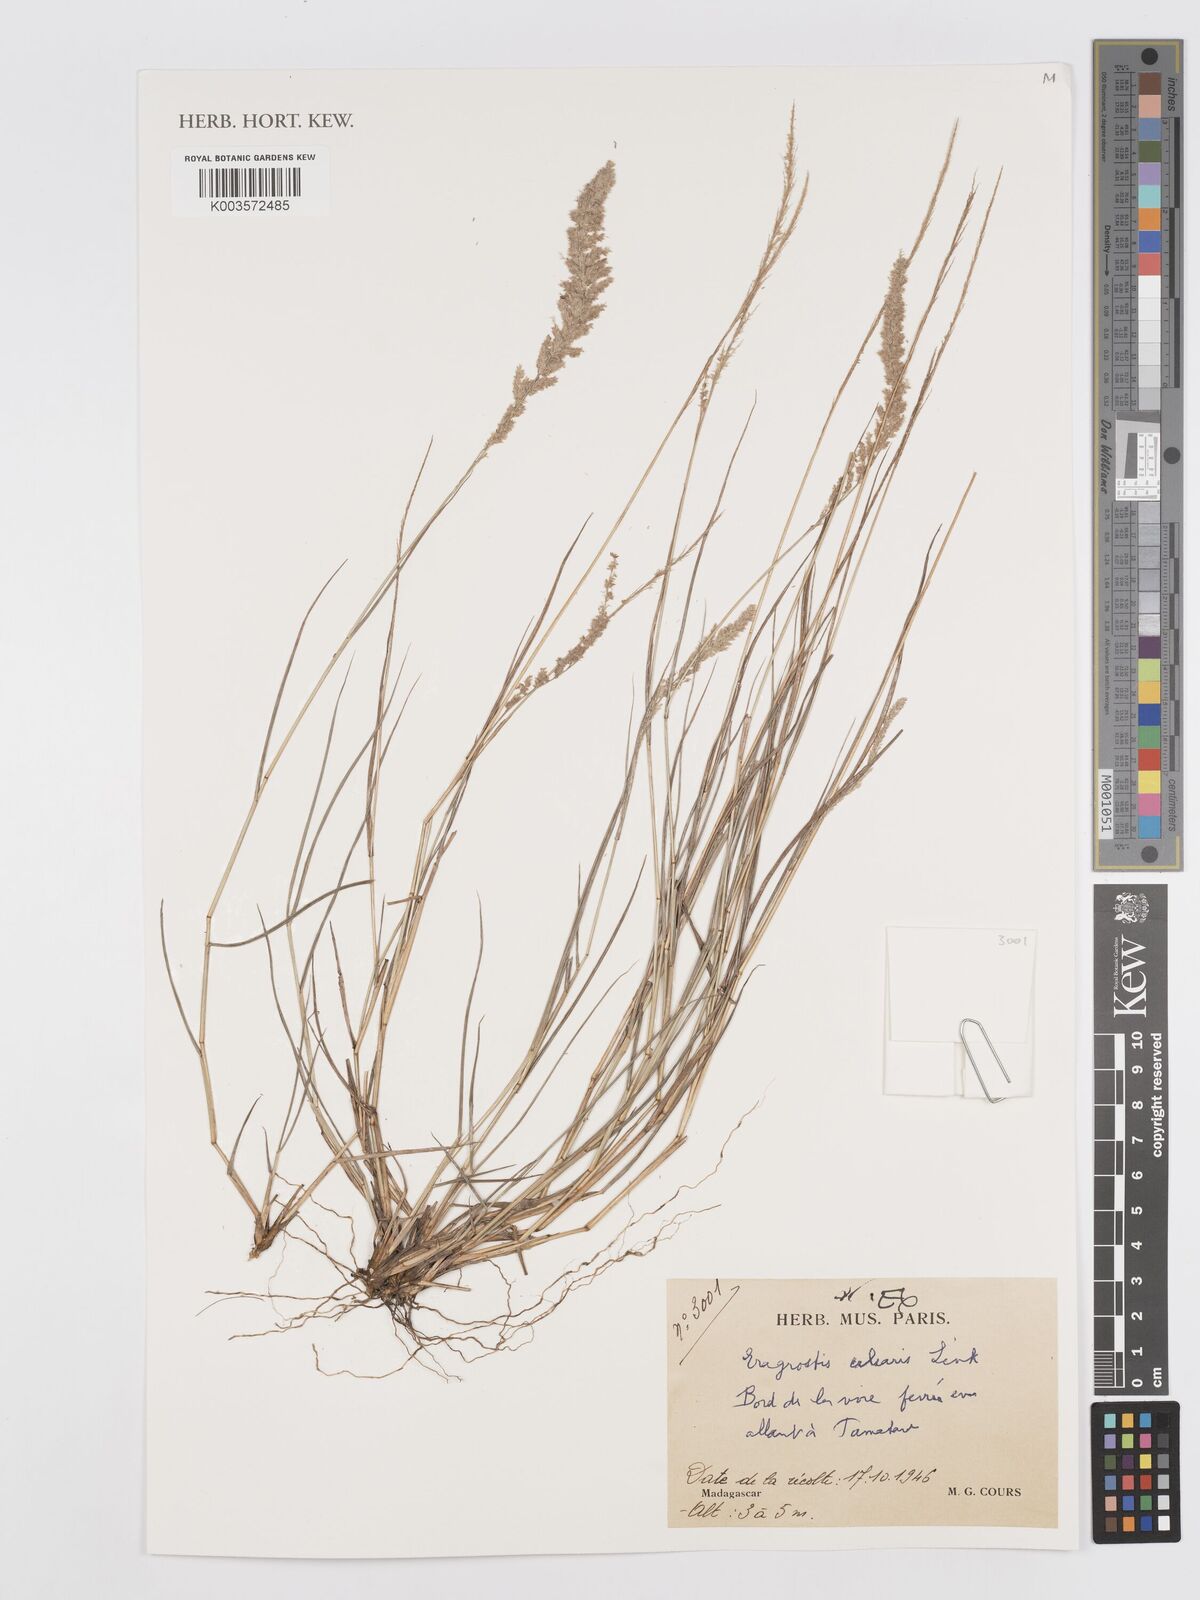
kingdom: Plantae
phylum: Tracheophyta
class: Liliopsida
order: Poales
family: Poaceae
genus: Eragrostis
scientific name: Eragrostis ciliaris
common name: Gophertail lovegrass
